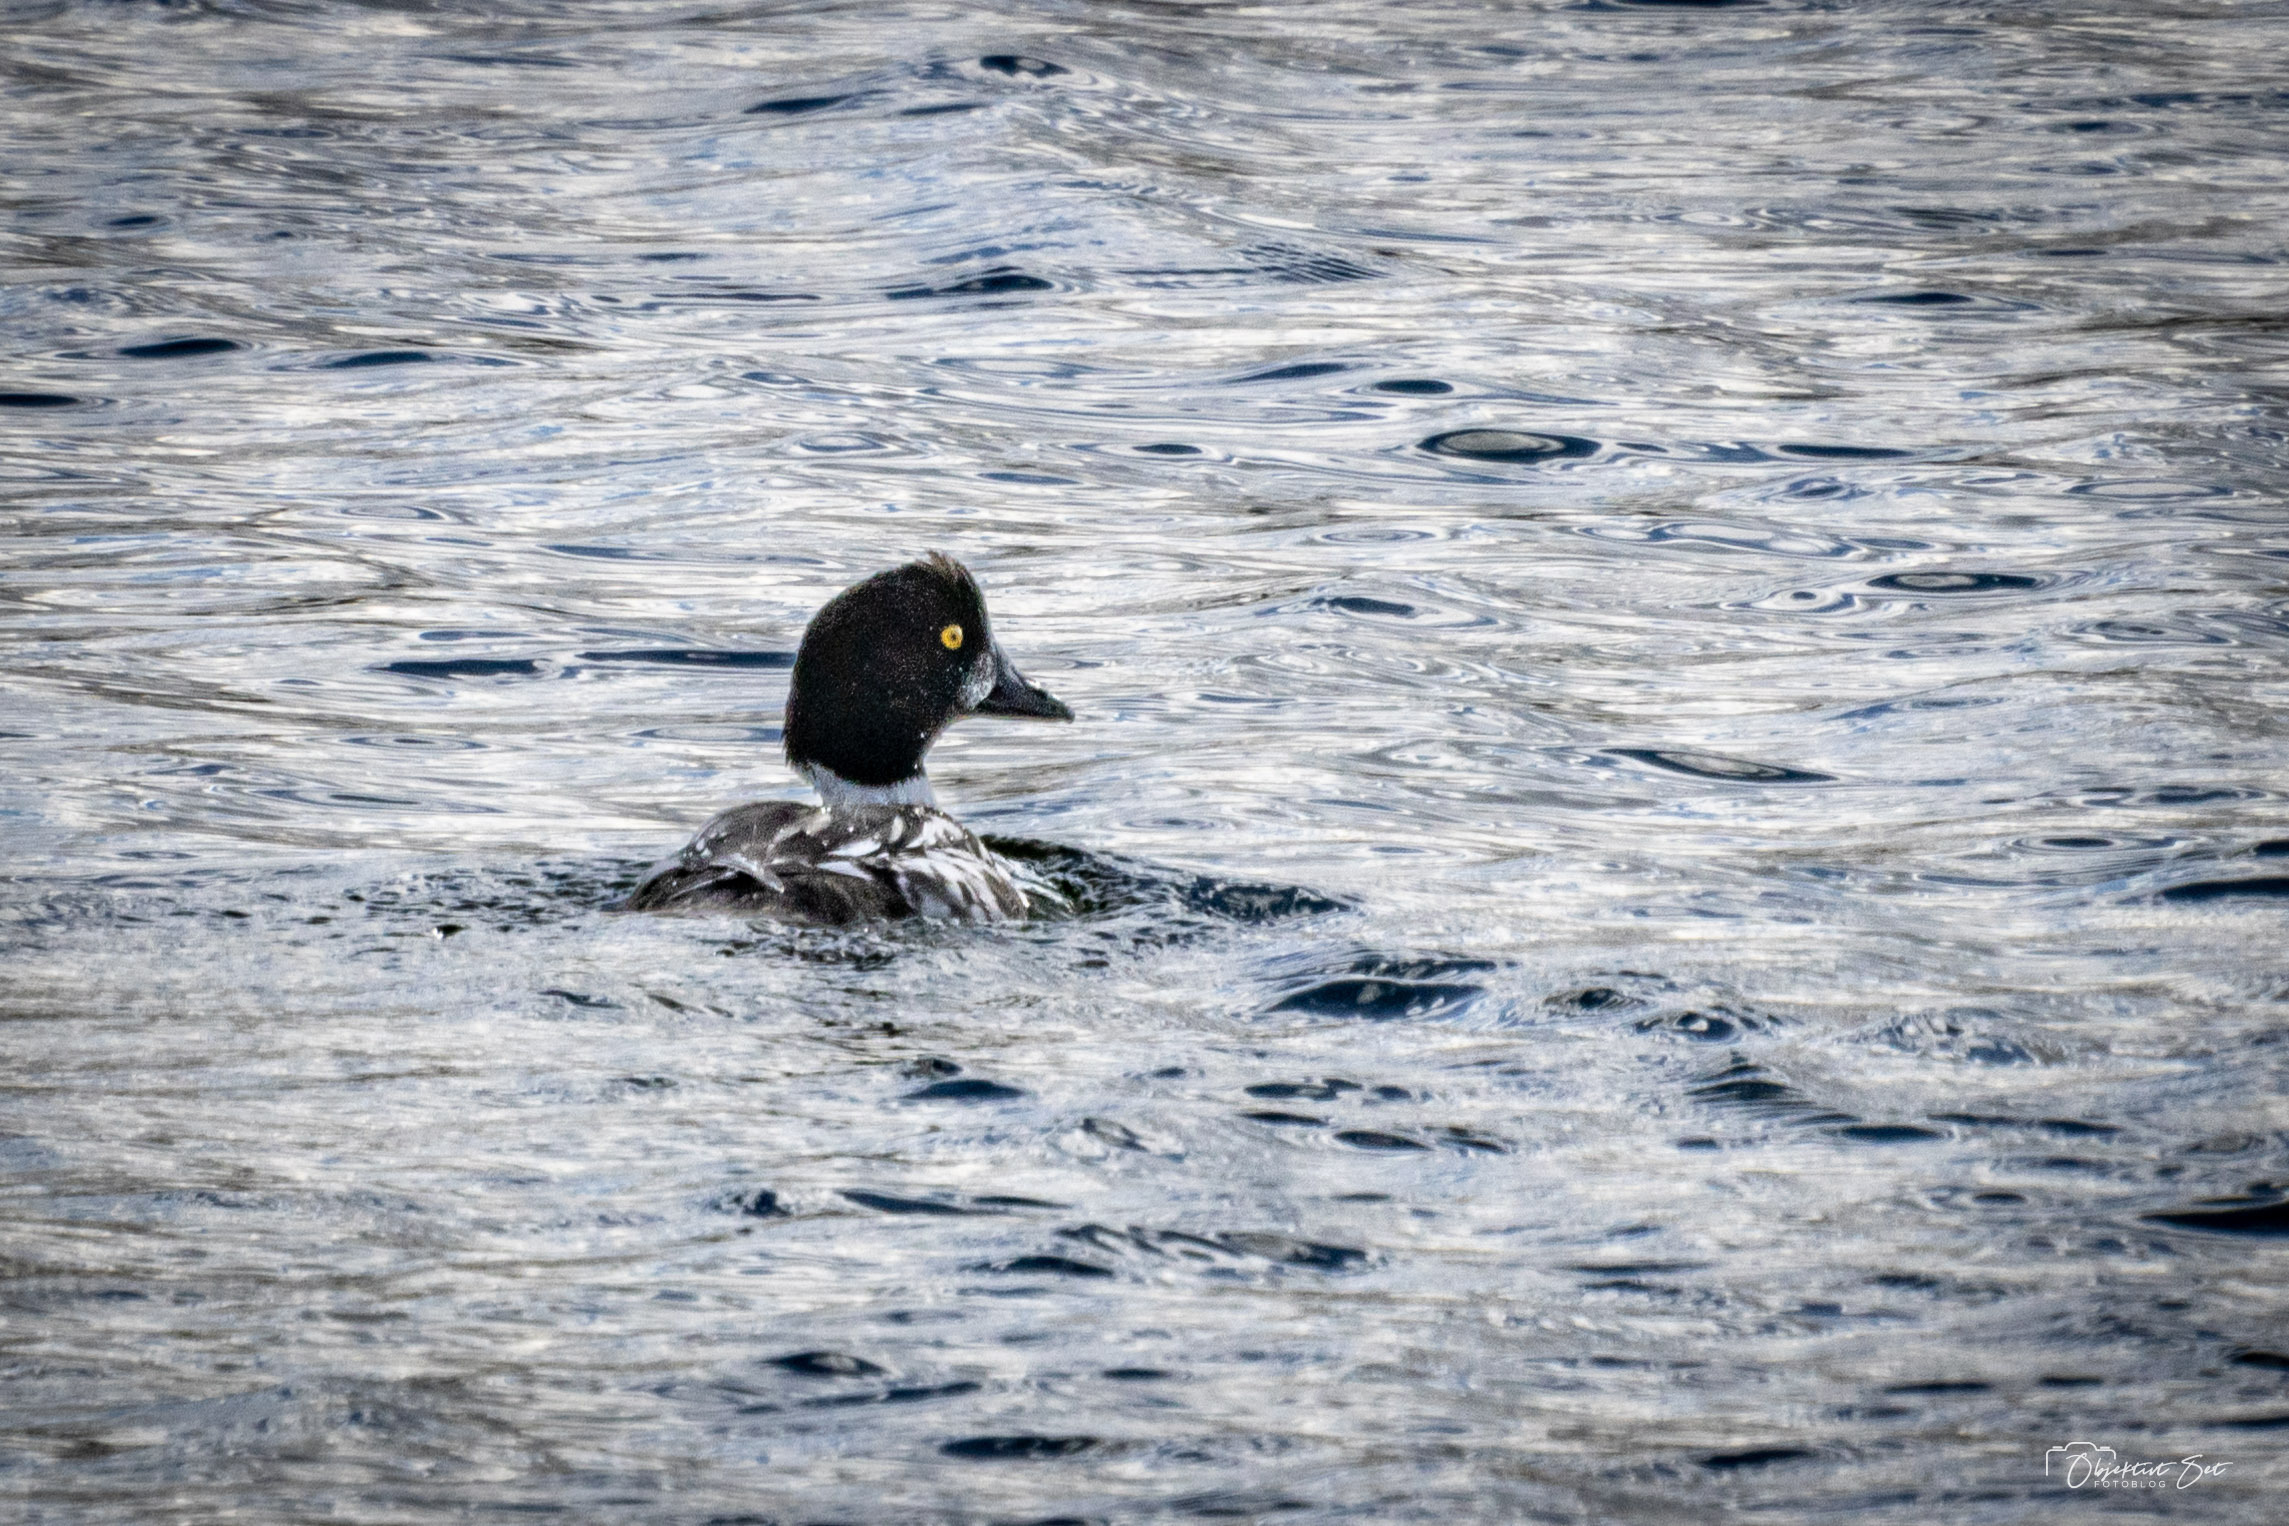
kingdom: Animalia
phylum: Chordata
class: Aves
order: Anseriformes
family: Anatidae
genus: Bucephala
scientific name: Bucephala clangula
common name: Hvinand
